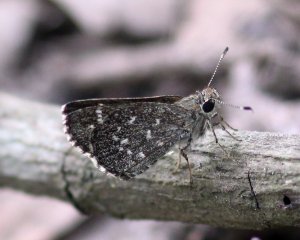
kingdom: Animalia
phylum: Arthropoda
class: Insecta
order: Lepidoptera
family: Hesperiidae
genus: Mastor
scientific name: Mastor celia
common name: Celia's Roadside-Skipper
